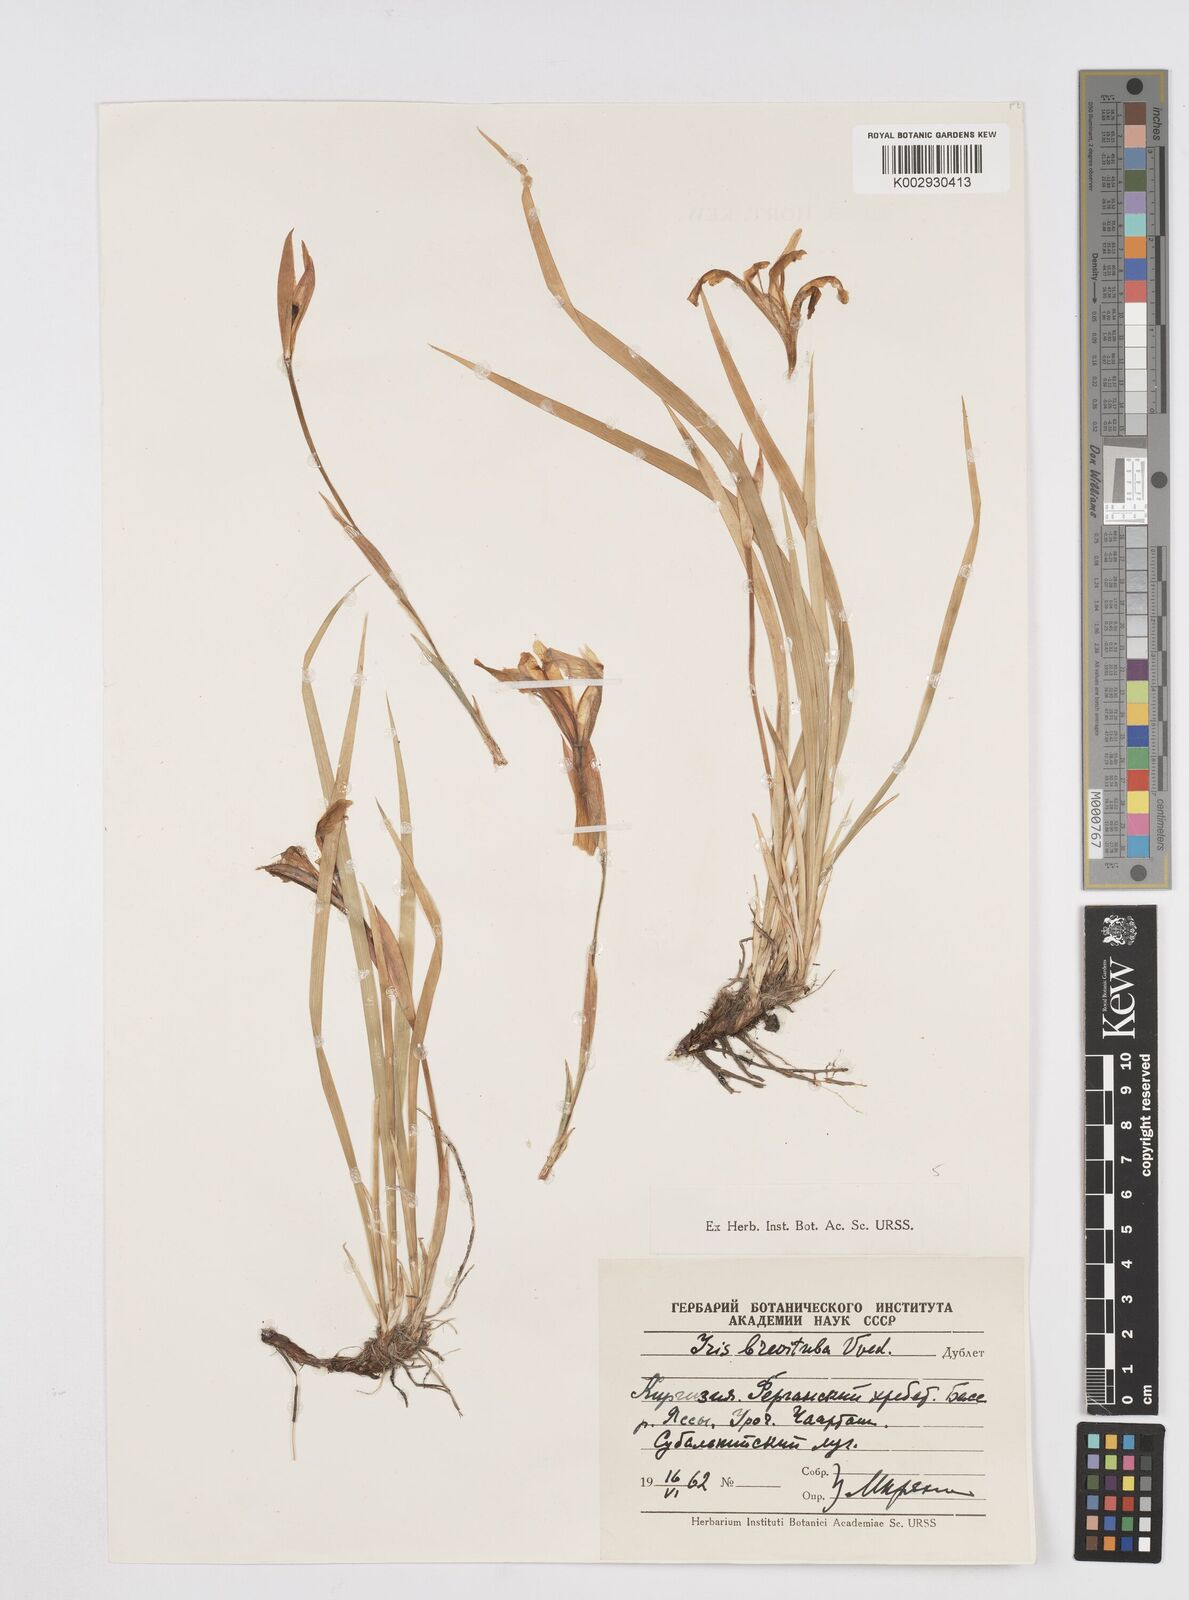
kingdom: Plantae
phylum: Tracheophyta
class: Liliopsida
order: Asparagales
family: Iridaceae
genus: Iris
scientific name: Iris ruthenica
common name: Purple-bract iris
